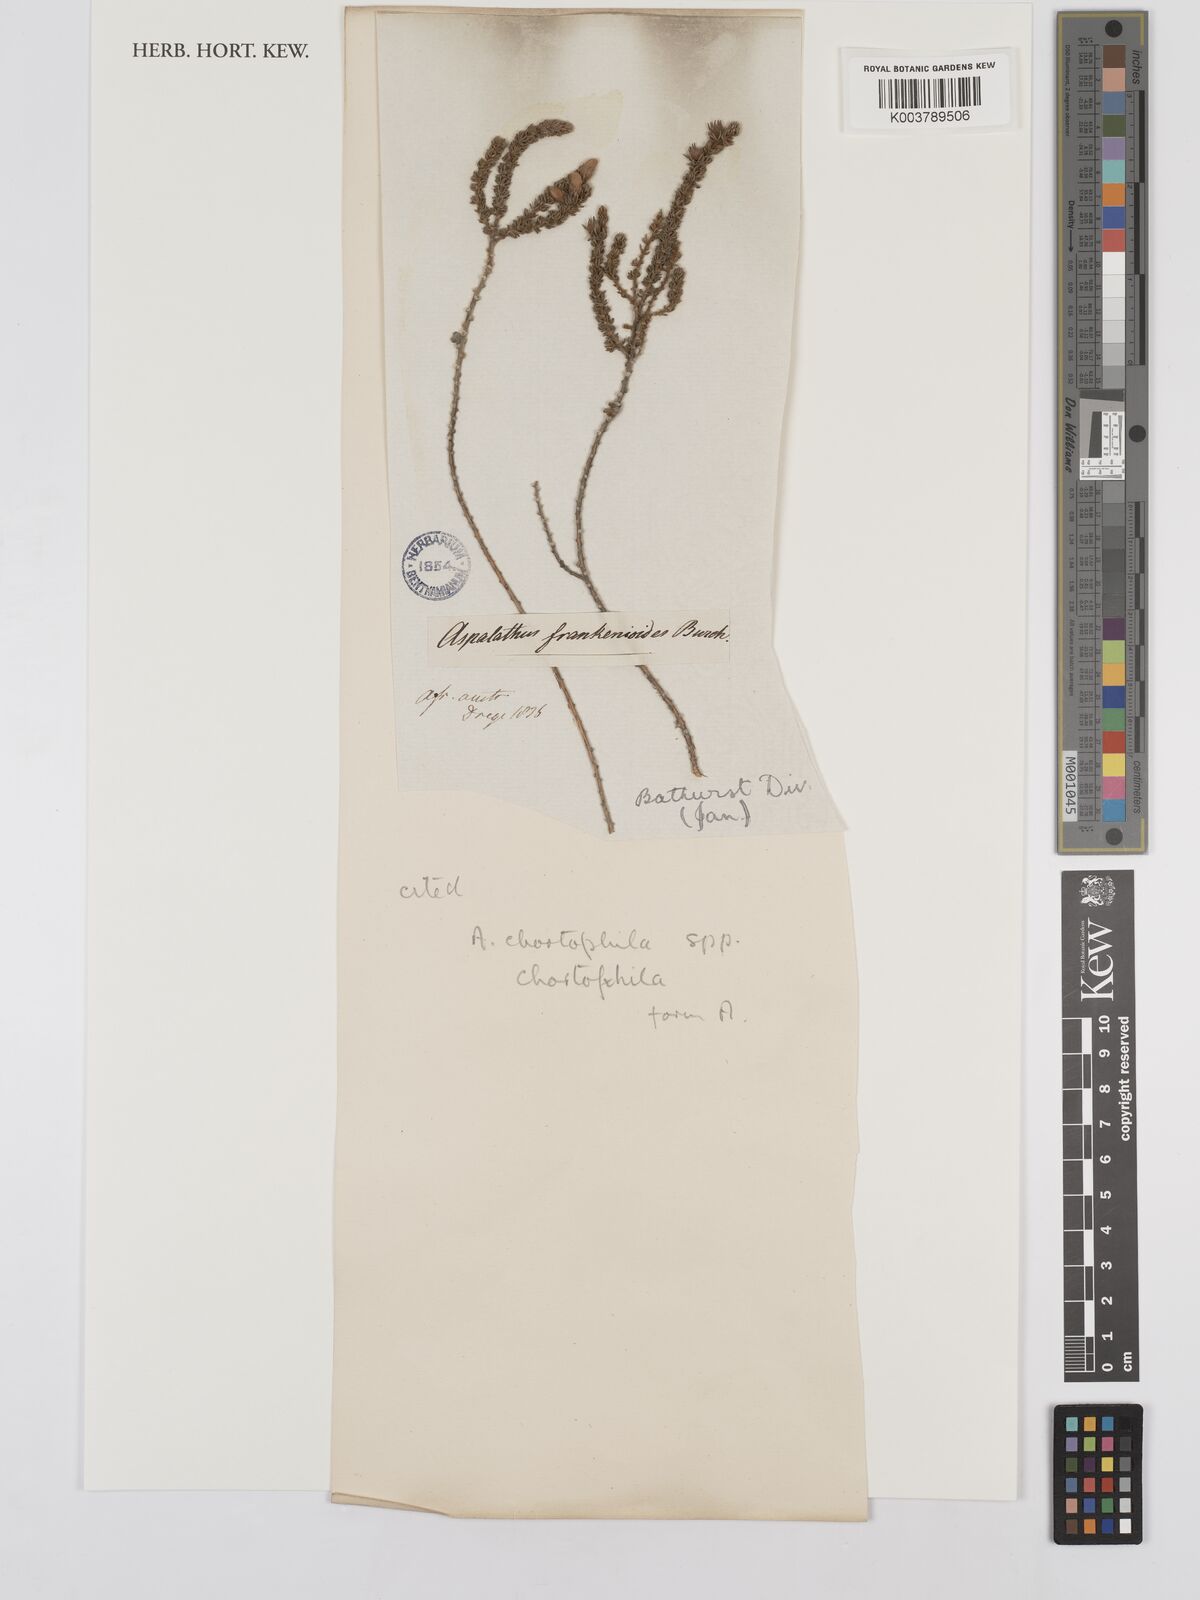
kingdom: Plantae
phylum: Tracheophyta
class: Magnoliopsida
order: Fabales
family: Fabaceae
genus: Aspalathus
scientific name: Aspalathus chortophila
